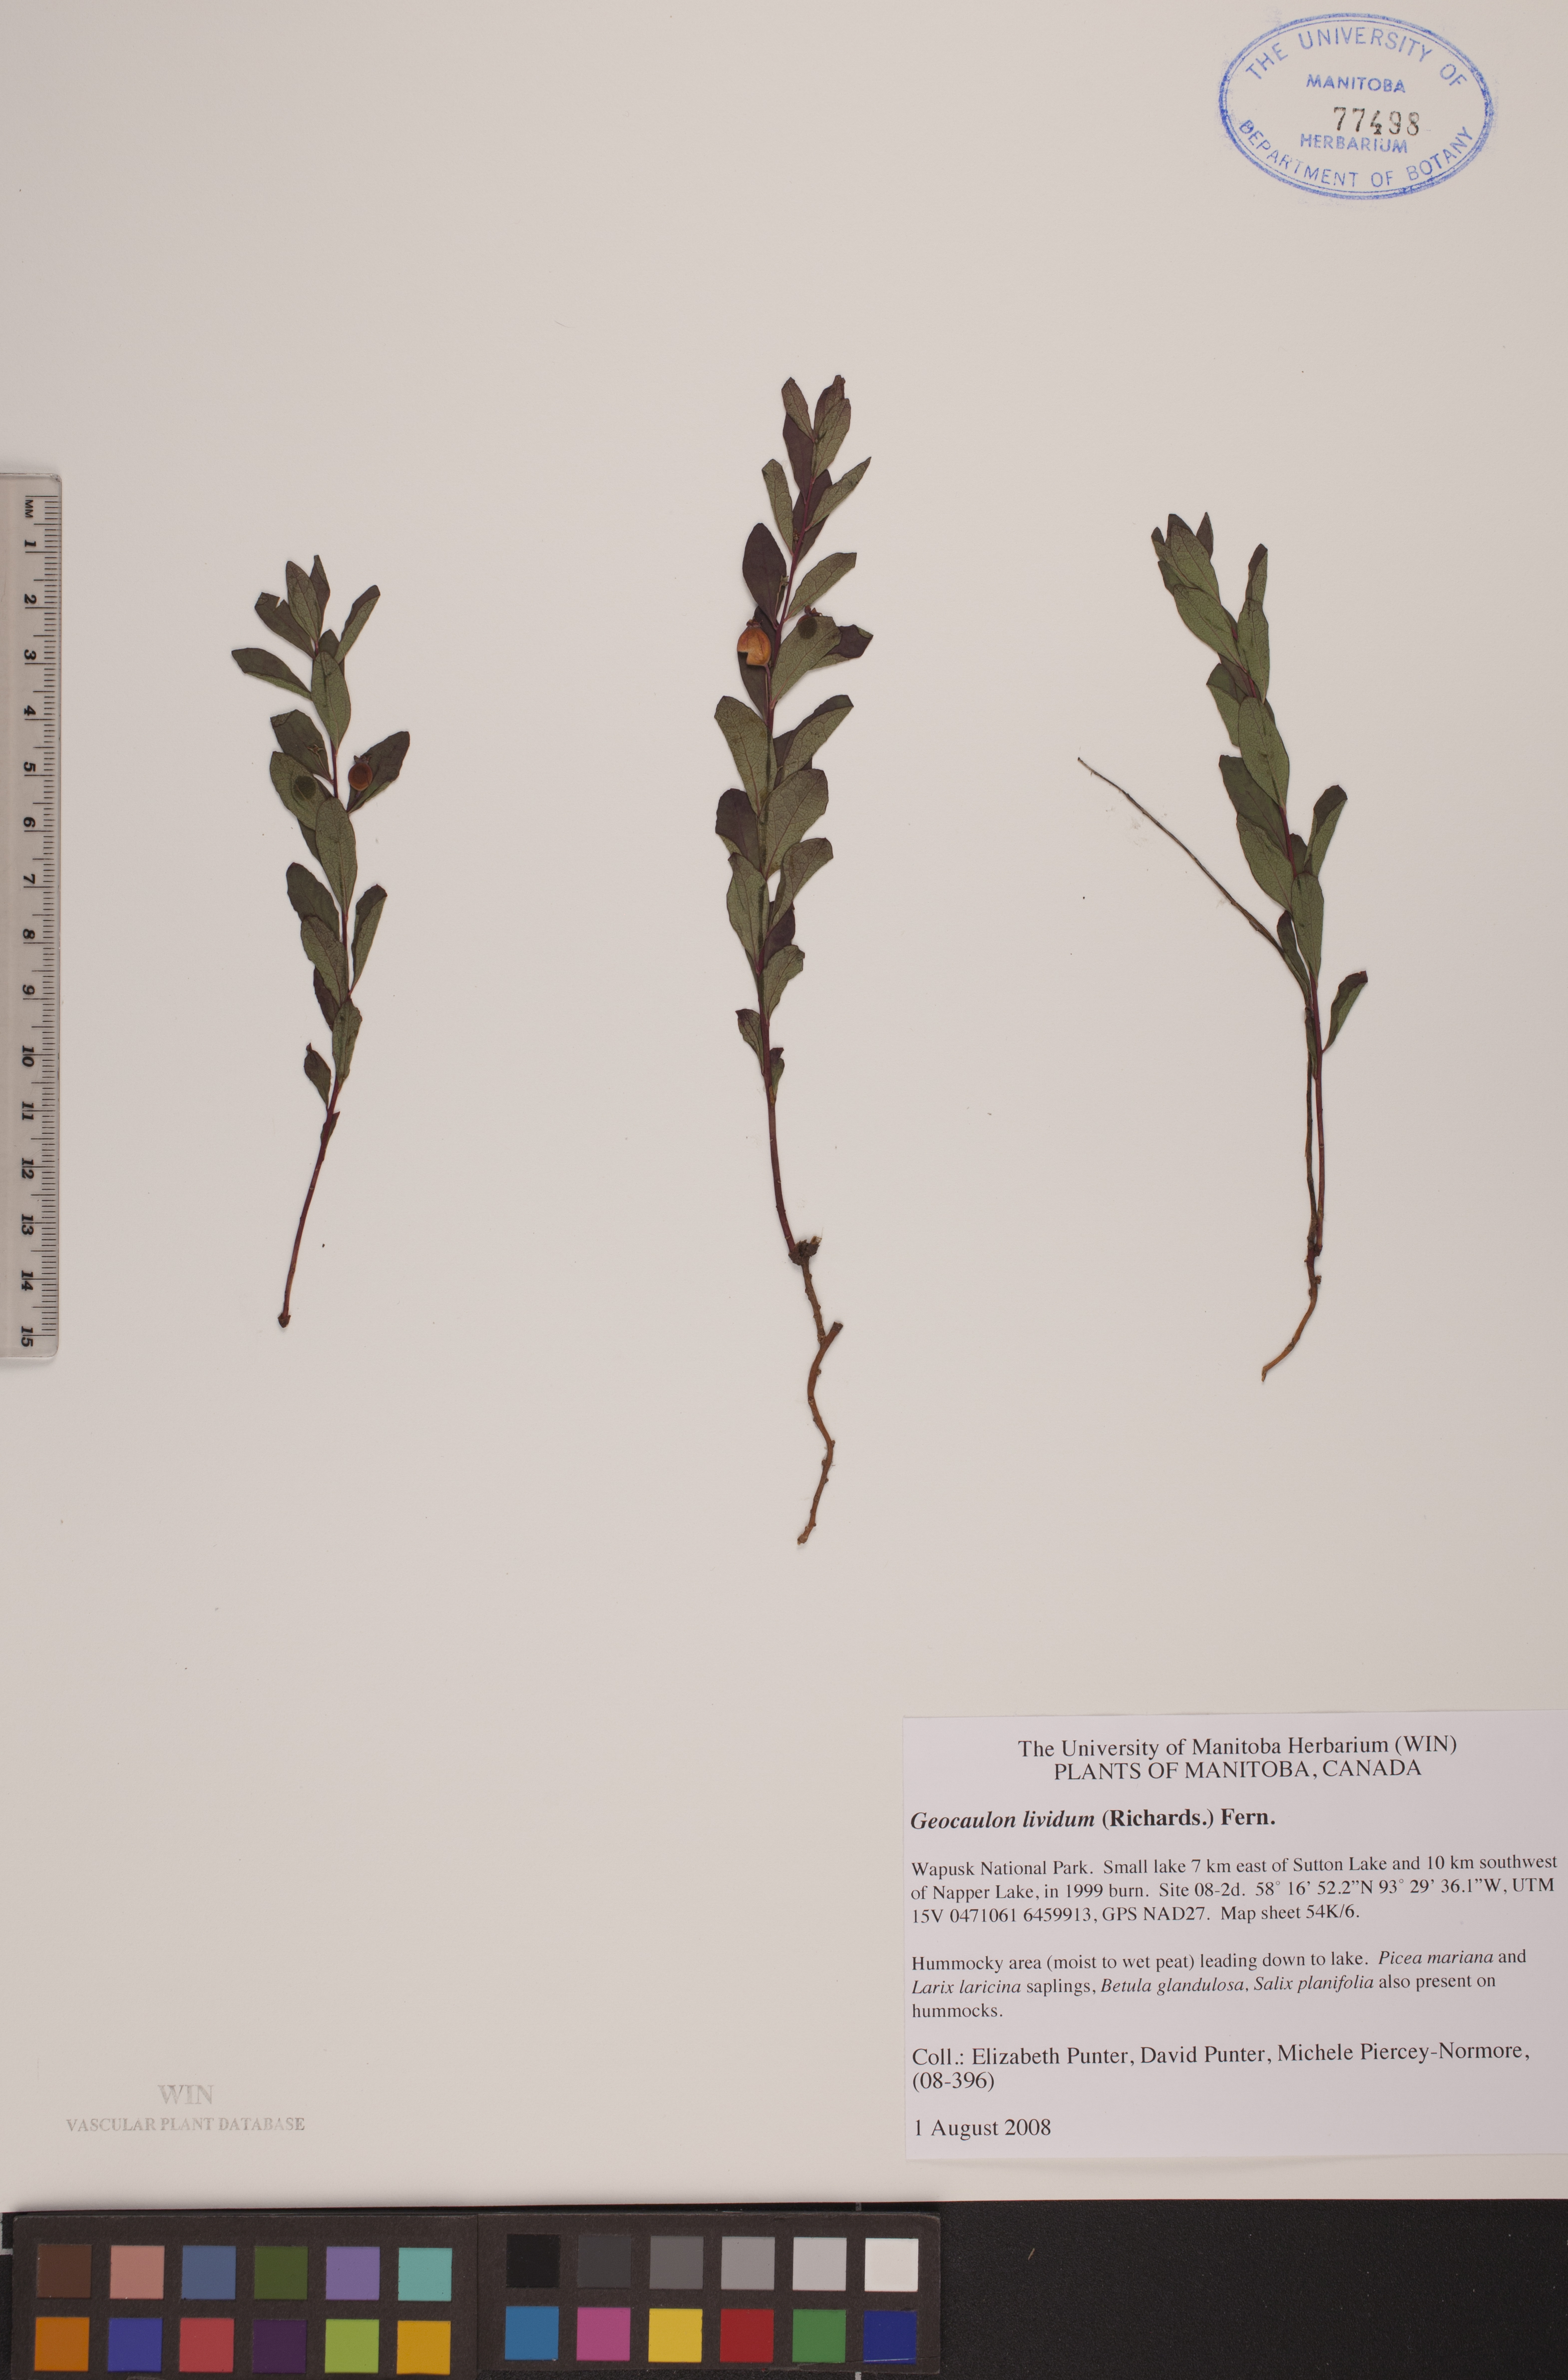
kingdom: Plantae
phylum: Tracheophyta
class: Magnoliopsida
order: Santalales
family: Comandraceae
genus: Geocaulon
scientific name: Geocaulon lividum
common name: Earthberry
